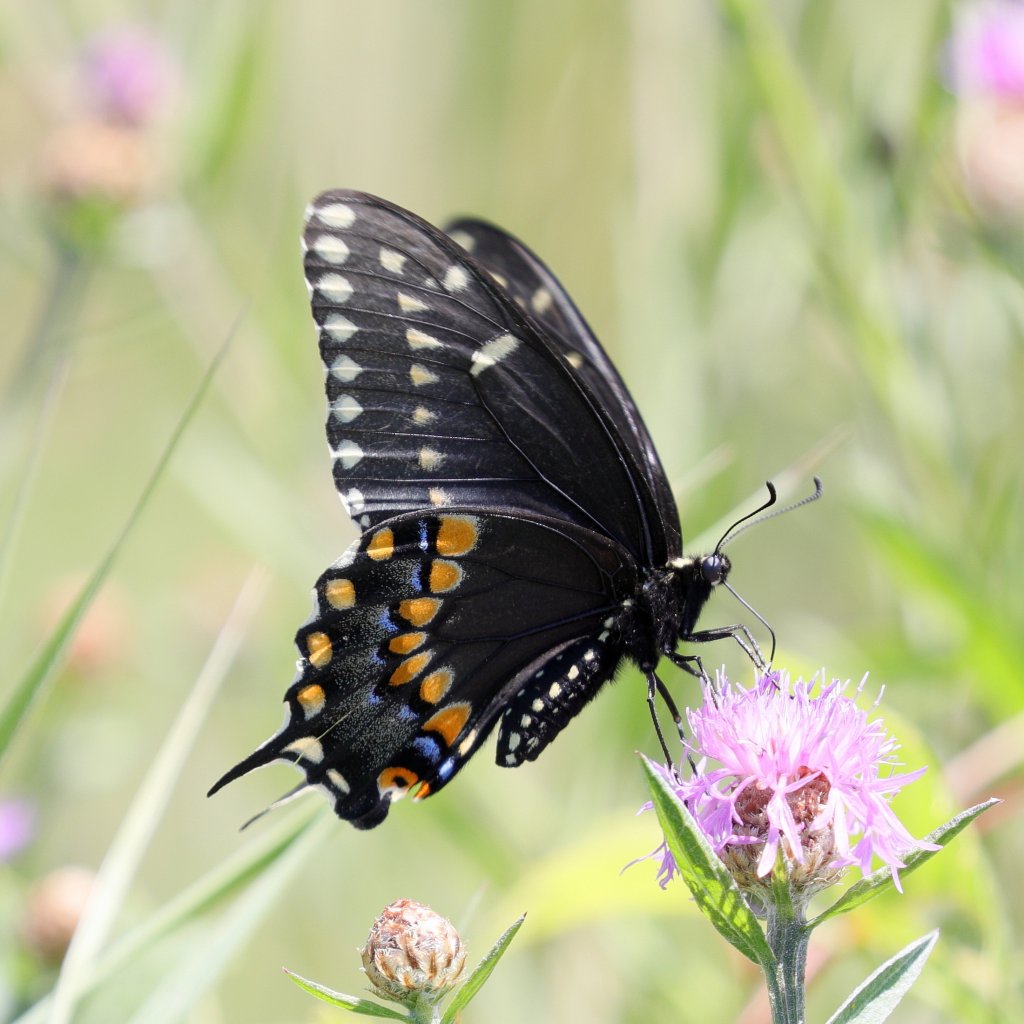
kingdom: Animalia
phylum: Arthropoda
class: Insecta
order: Lepidoptera
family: Papilionidae
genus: Papilio
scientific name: Papilio polyxenes
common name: Black Swallowtail
